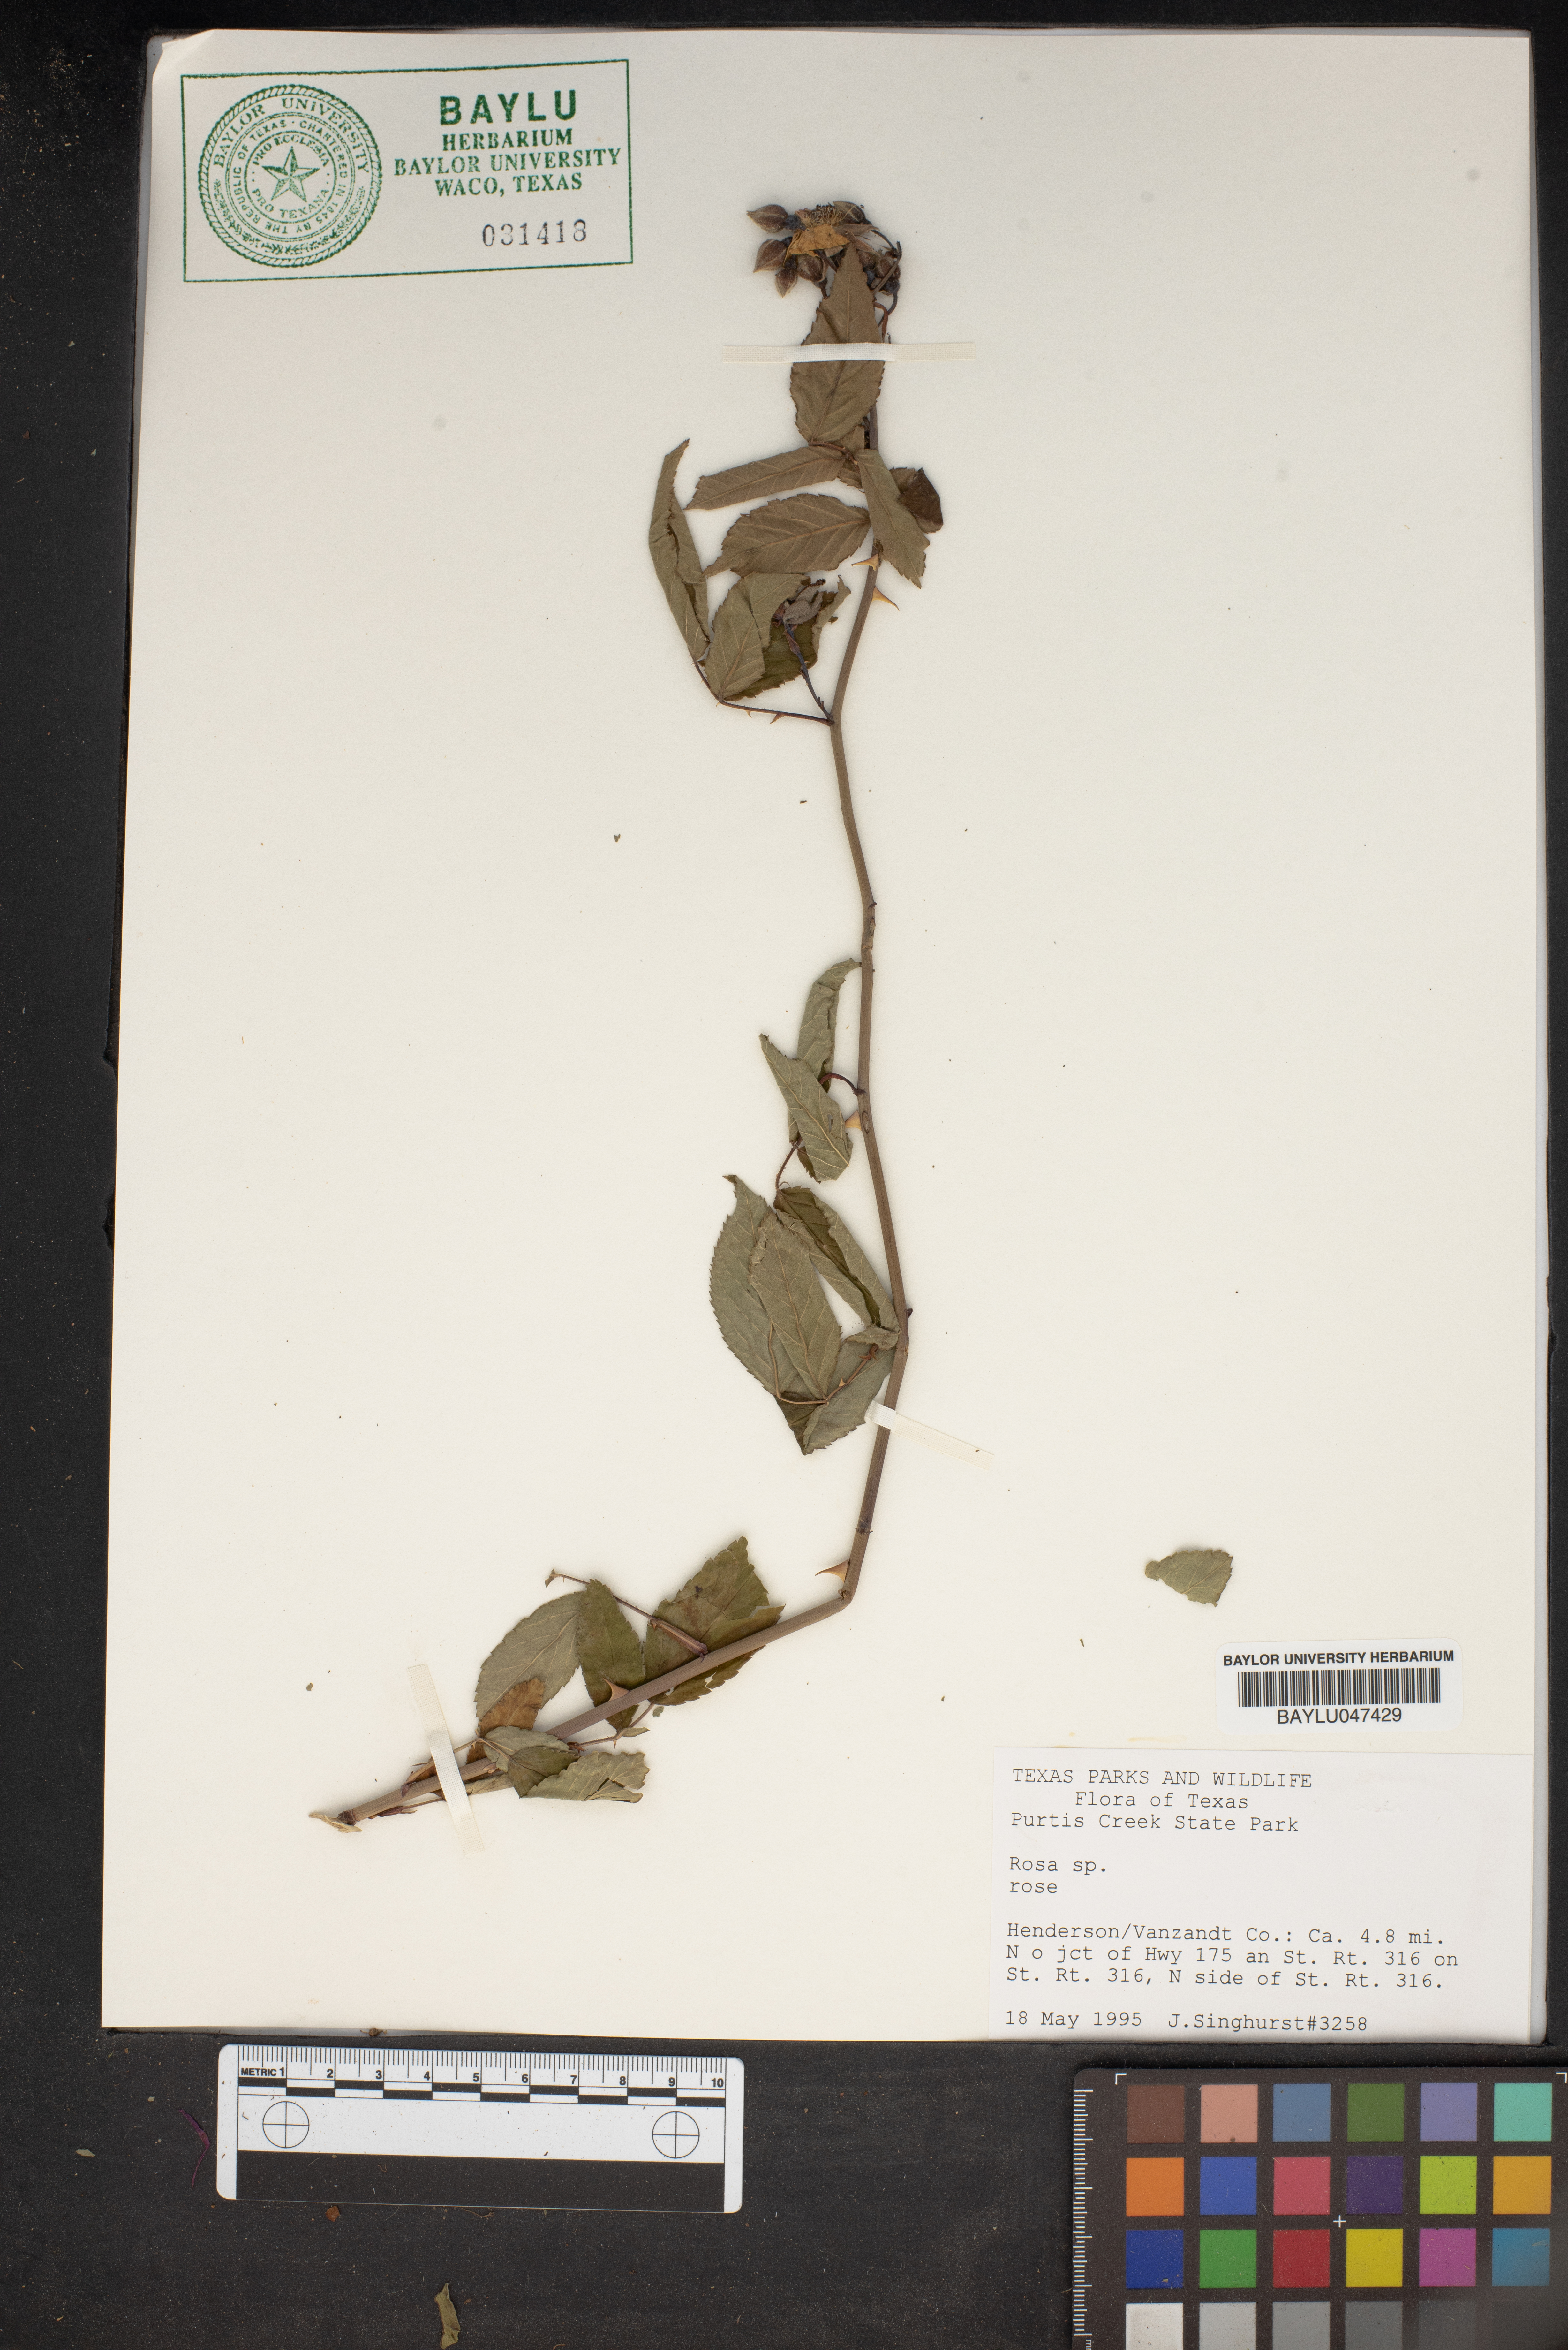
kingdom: Plantae
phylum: Tracheophyta
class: Magnoliopsida
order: Rosales
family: Rosaceae
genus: Rosa
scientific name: Rosa
